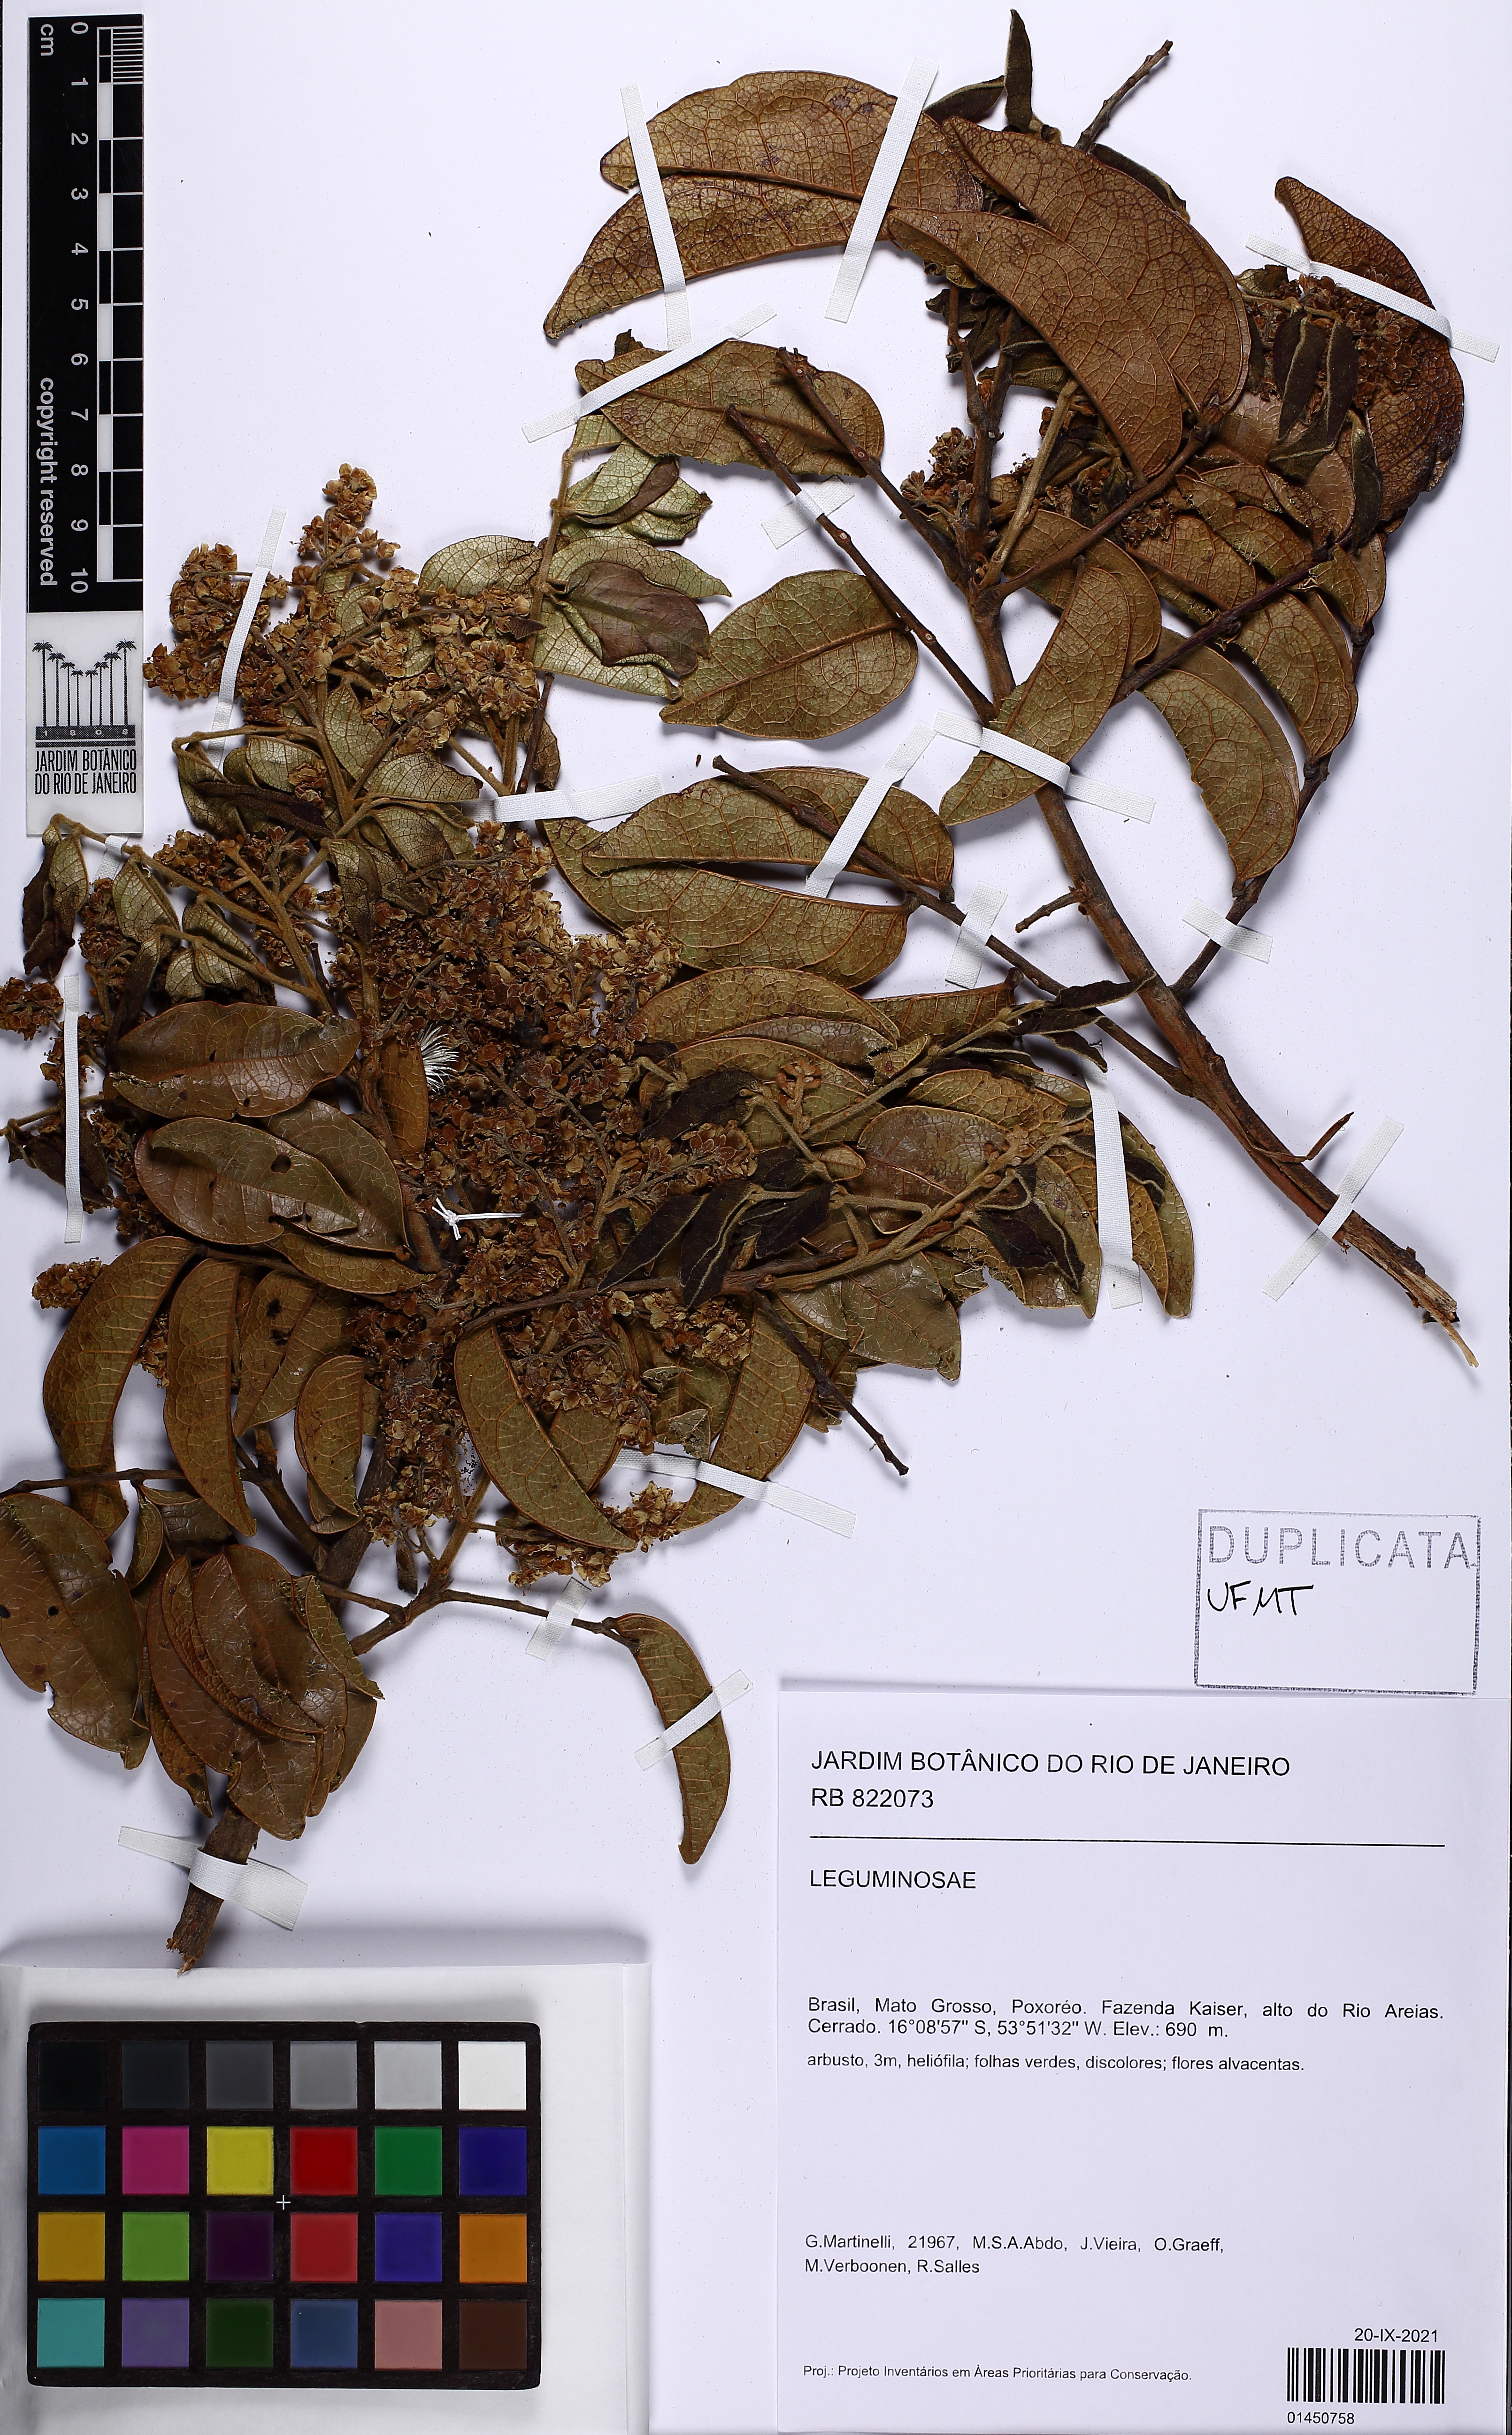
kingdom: Plantae
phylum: Tracheophyta
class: Magnoliopsida
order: Oxalidales
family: Connaraceae
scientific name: Connaraceae
